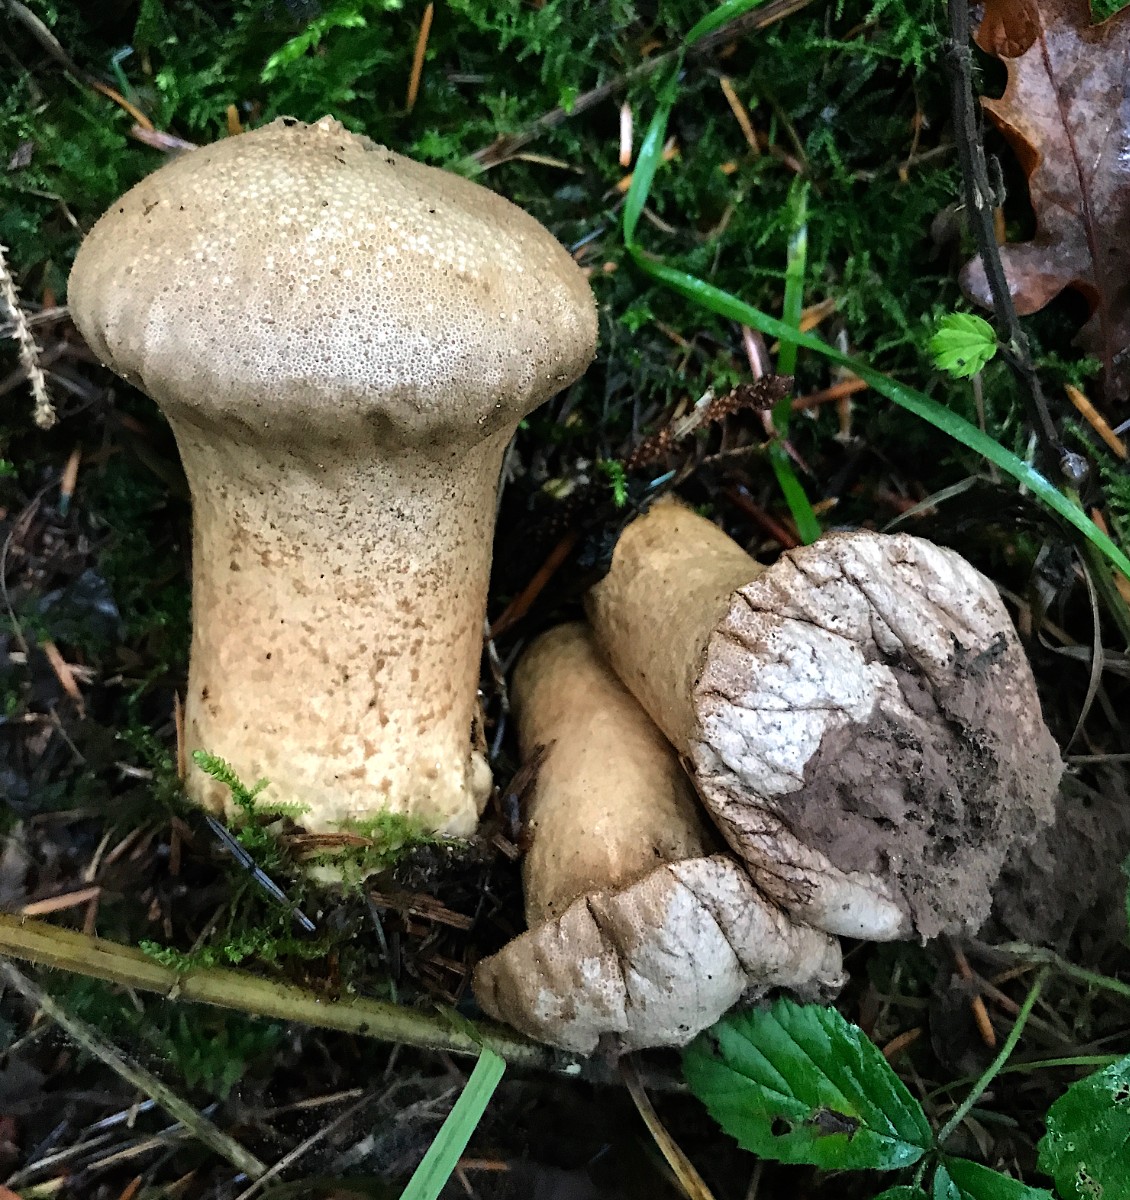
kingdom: Fungi
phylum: Basidiomycota
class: Agaricomycetes
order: Agaricales
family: Lycoperdaceae
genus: Lycoperdon
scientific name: Lycoperdon excipuliforme
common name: højstokket støvbold
